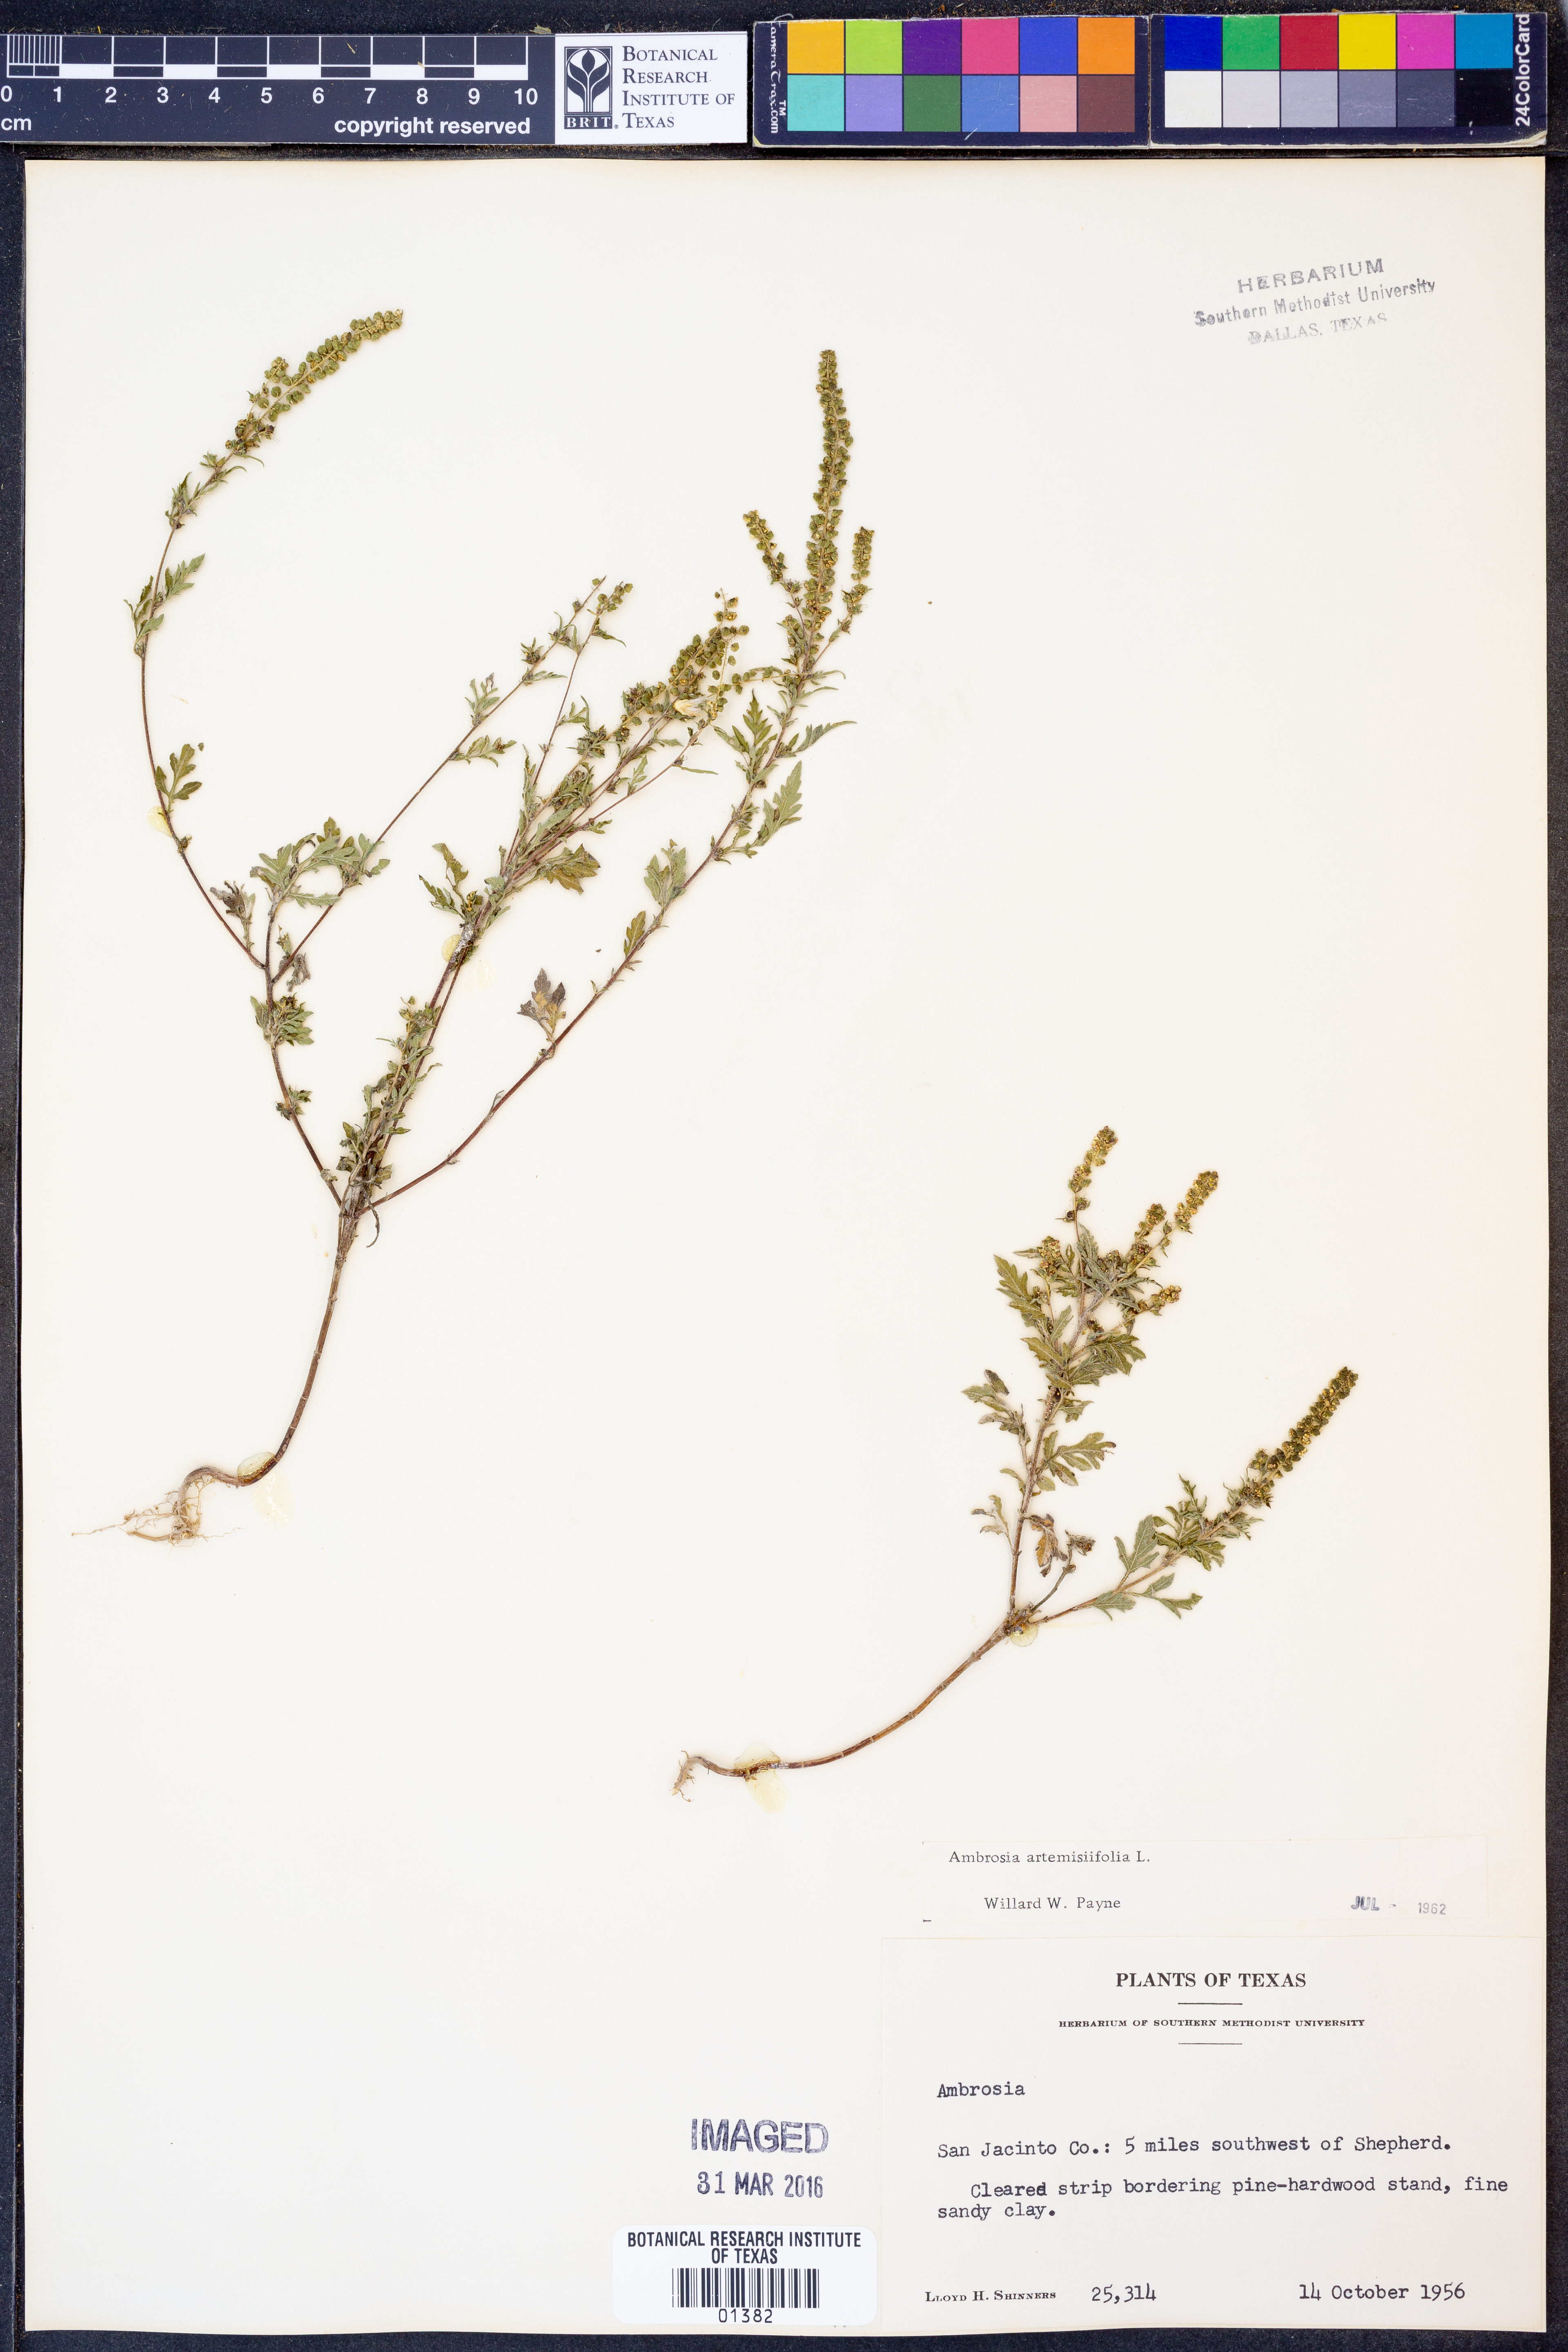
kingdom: Plantae
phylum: Tracheophyta
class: Magnoliopsida
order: Asterales
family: Asteraceae
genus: Ambrosia
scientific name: Ambrosia artemisiifolia
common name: Annual ragweed
